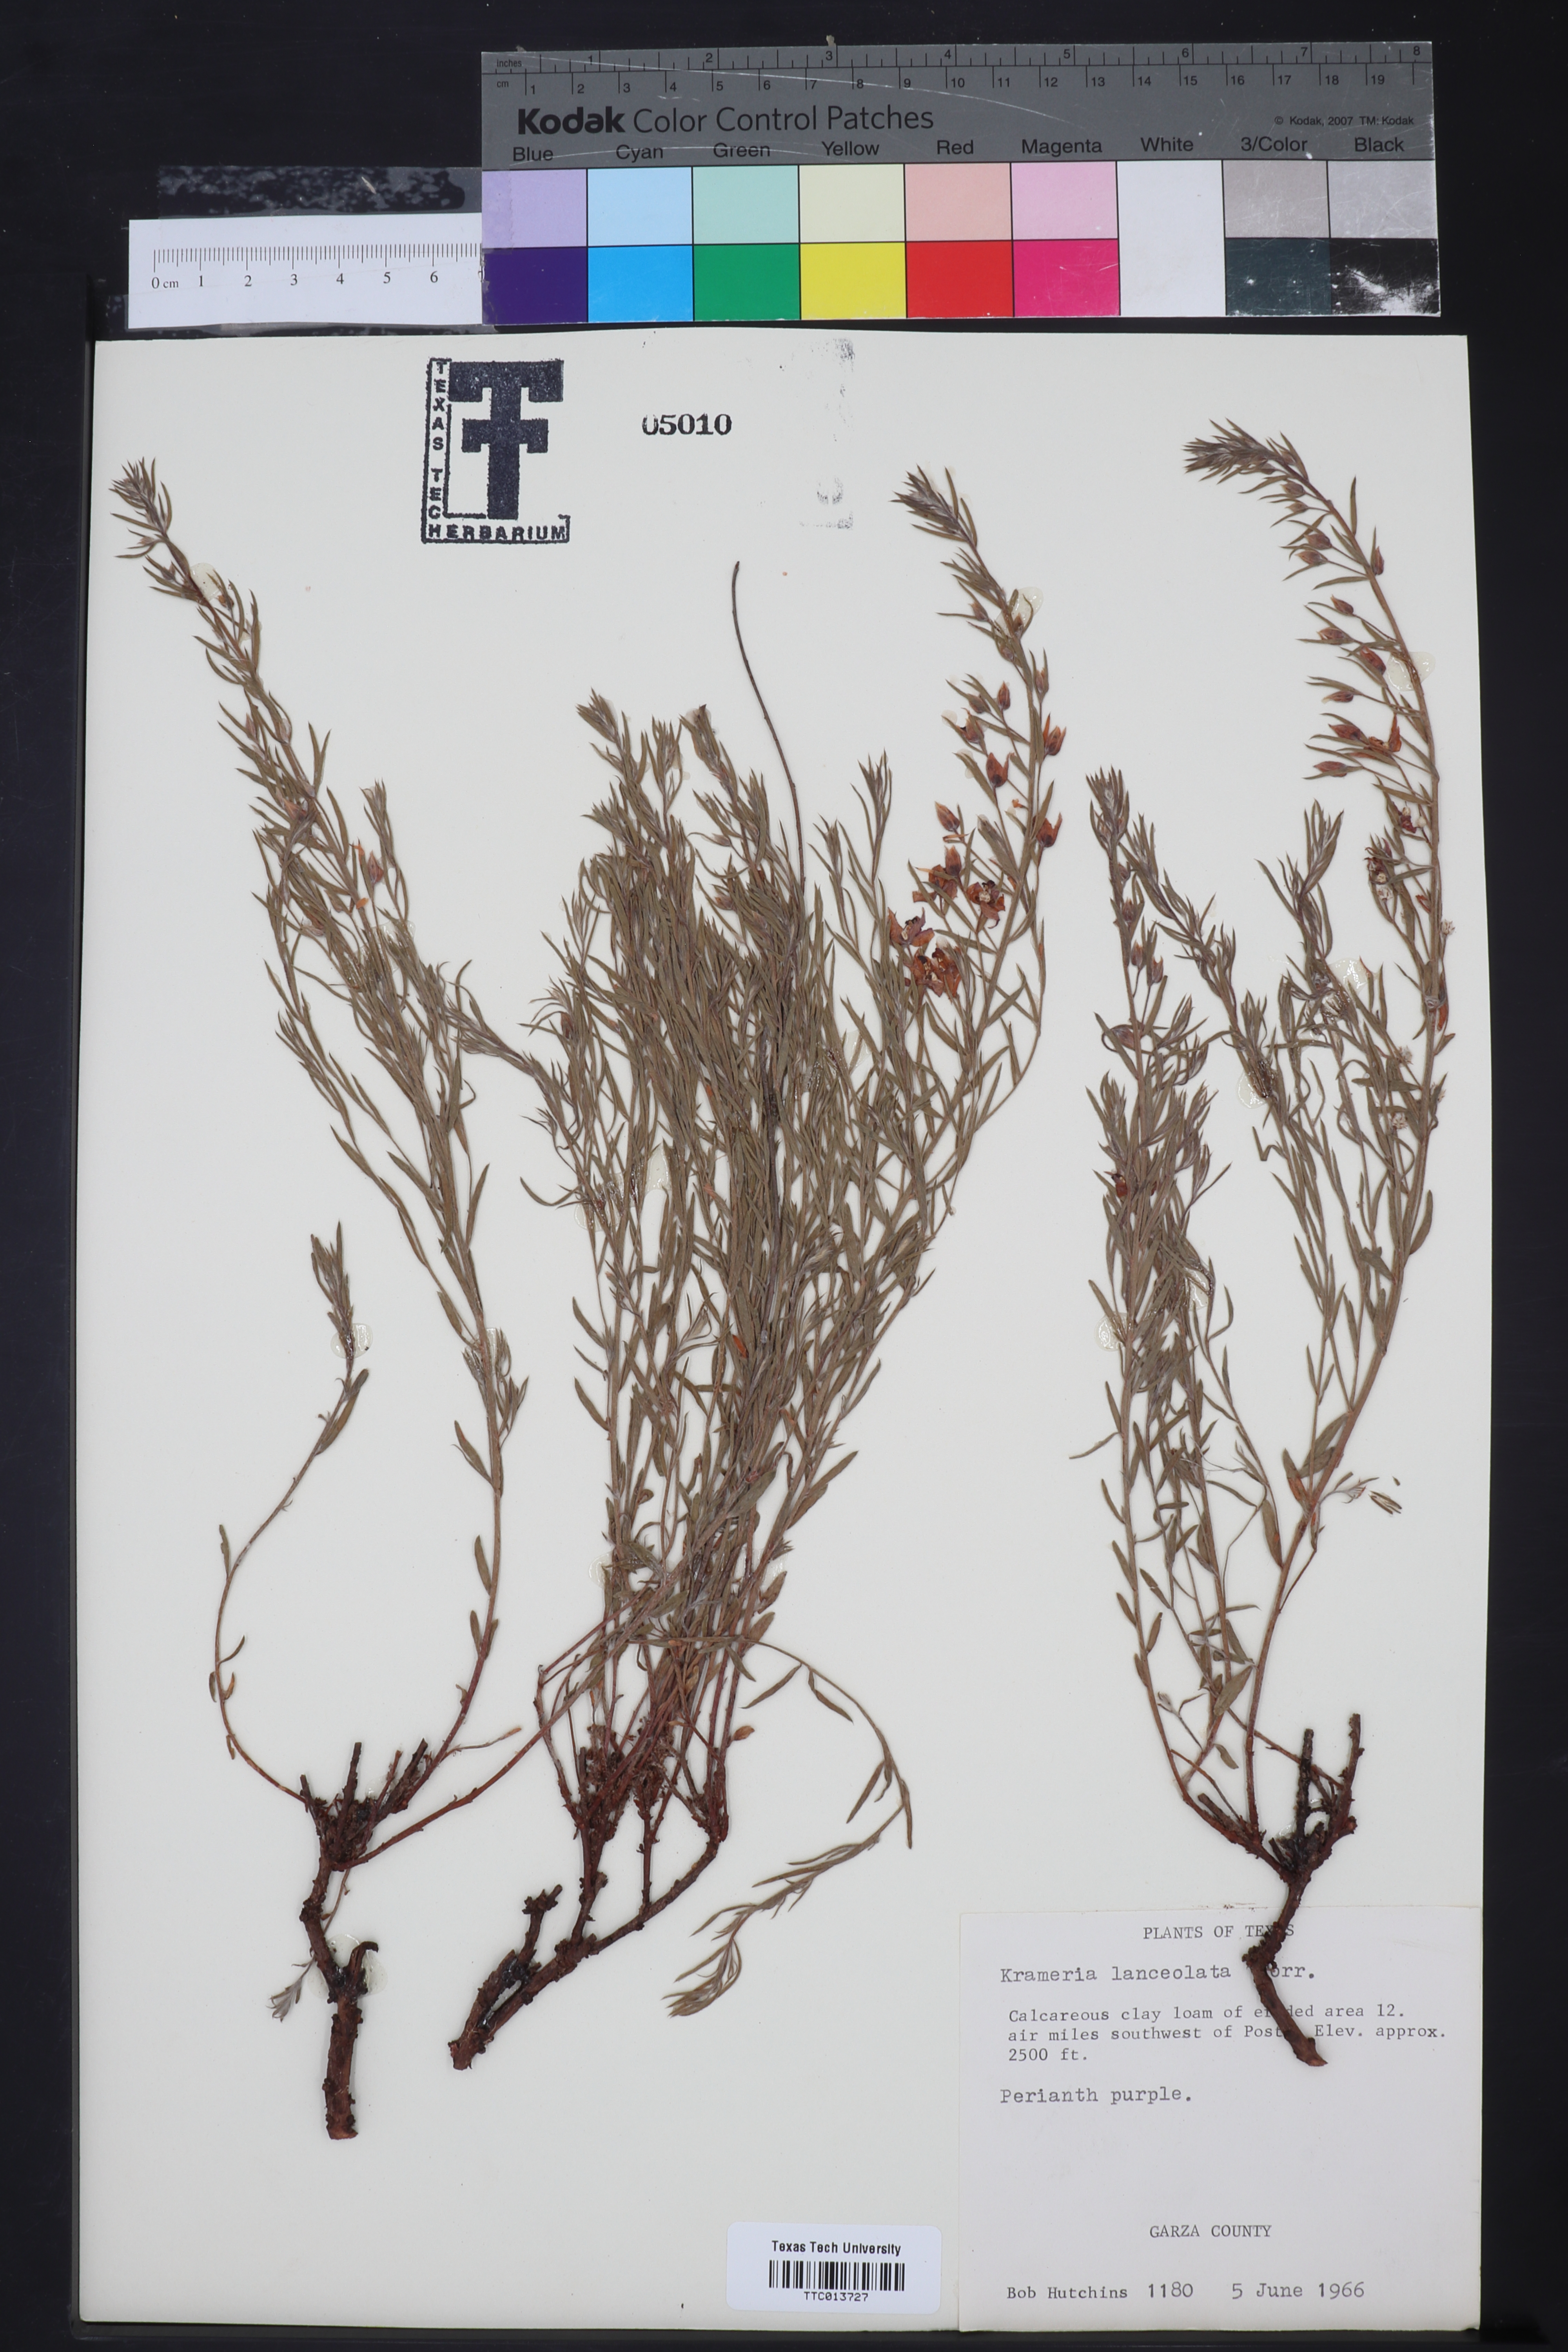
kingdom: Plantae
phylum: Tracheophyta
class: Magnoliopsida
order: Zygophyllales
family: Krameriaceae
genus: Krameria
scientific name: Krameria lanceolata
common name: Ratany
